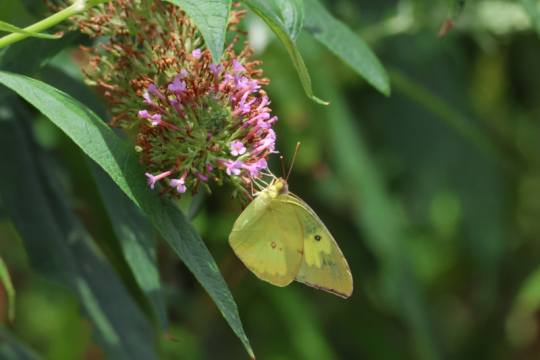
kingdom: Animalia
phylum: Arthropoda
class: Insecta
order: Lepidoptera
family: Pieridae
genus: Zerene
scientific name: Zerene cesonia
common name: Southern Dogface
